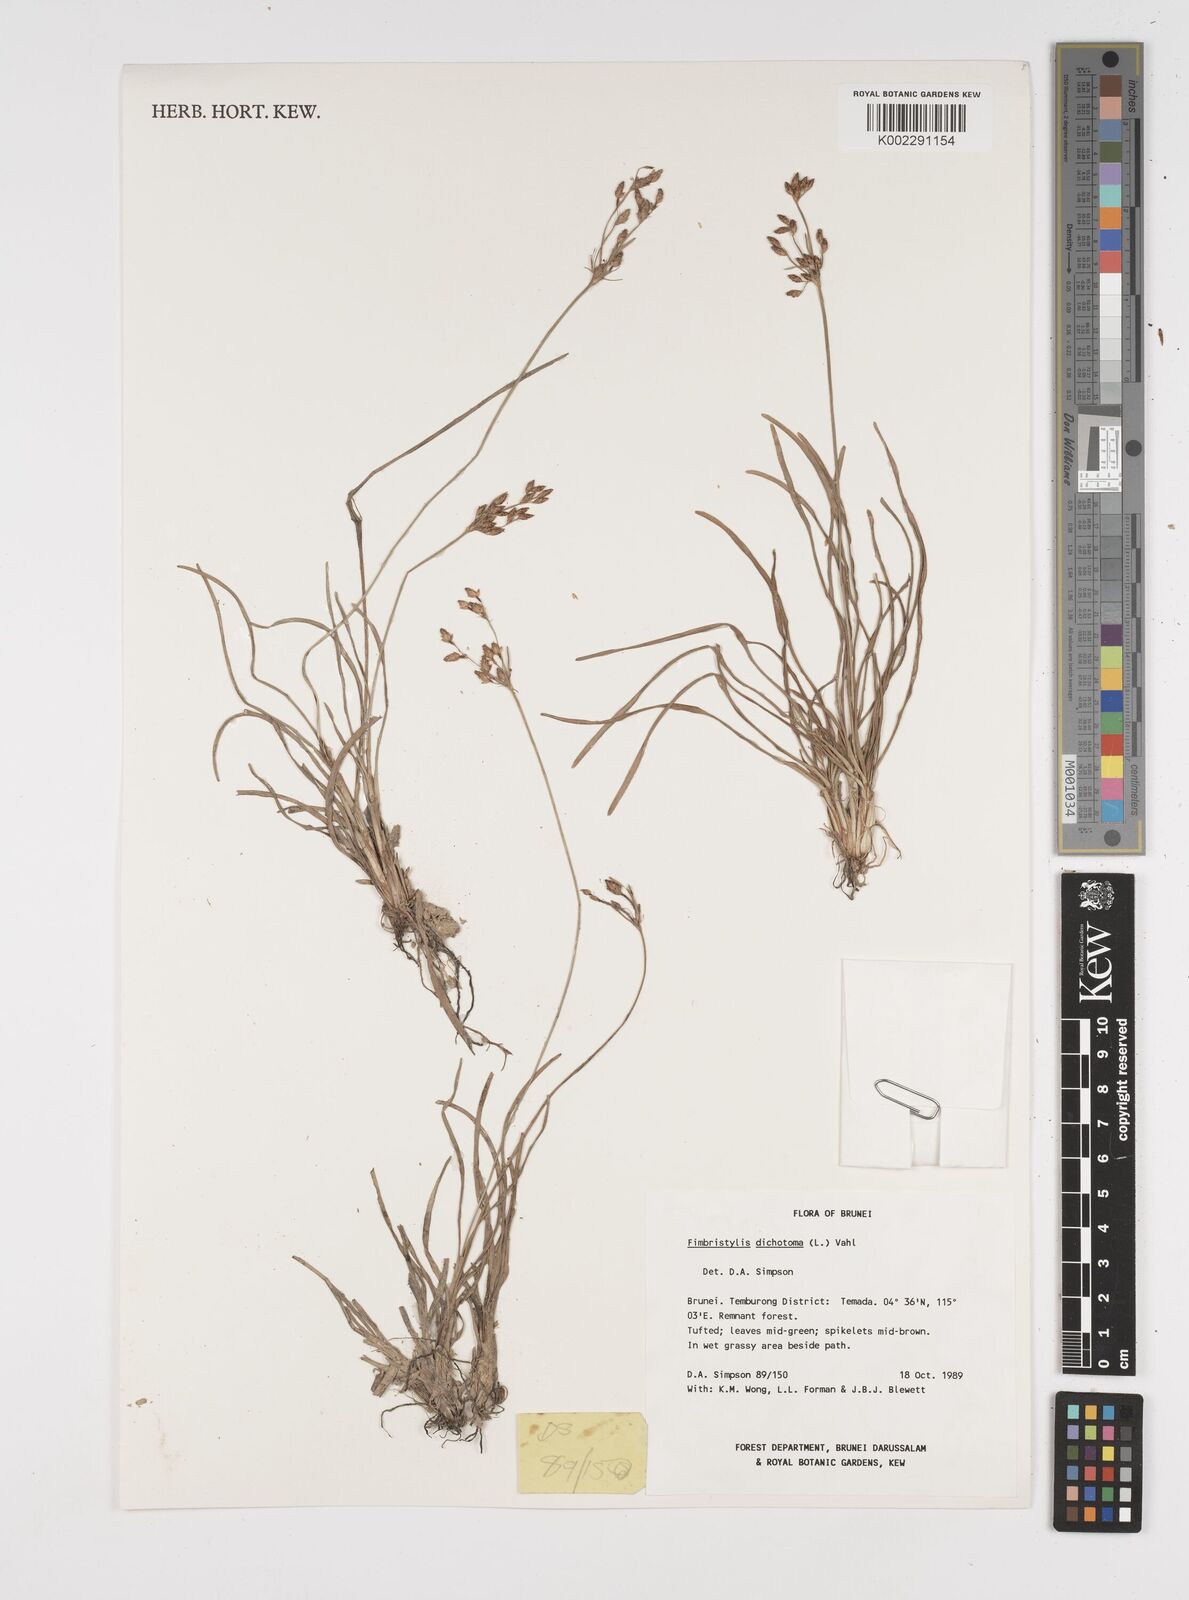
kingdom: Plantae
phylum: Tracheophyta
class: Liliopsida
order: Poales
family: Cyperaceae
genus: Fimbristylis
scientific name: Fimbristylis dichotoma
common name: Forked fimbry
